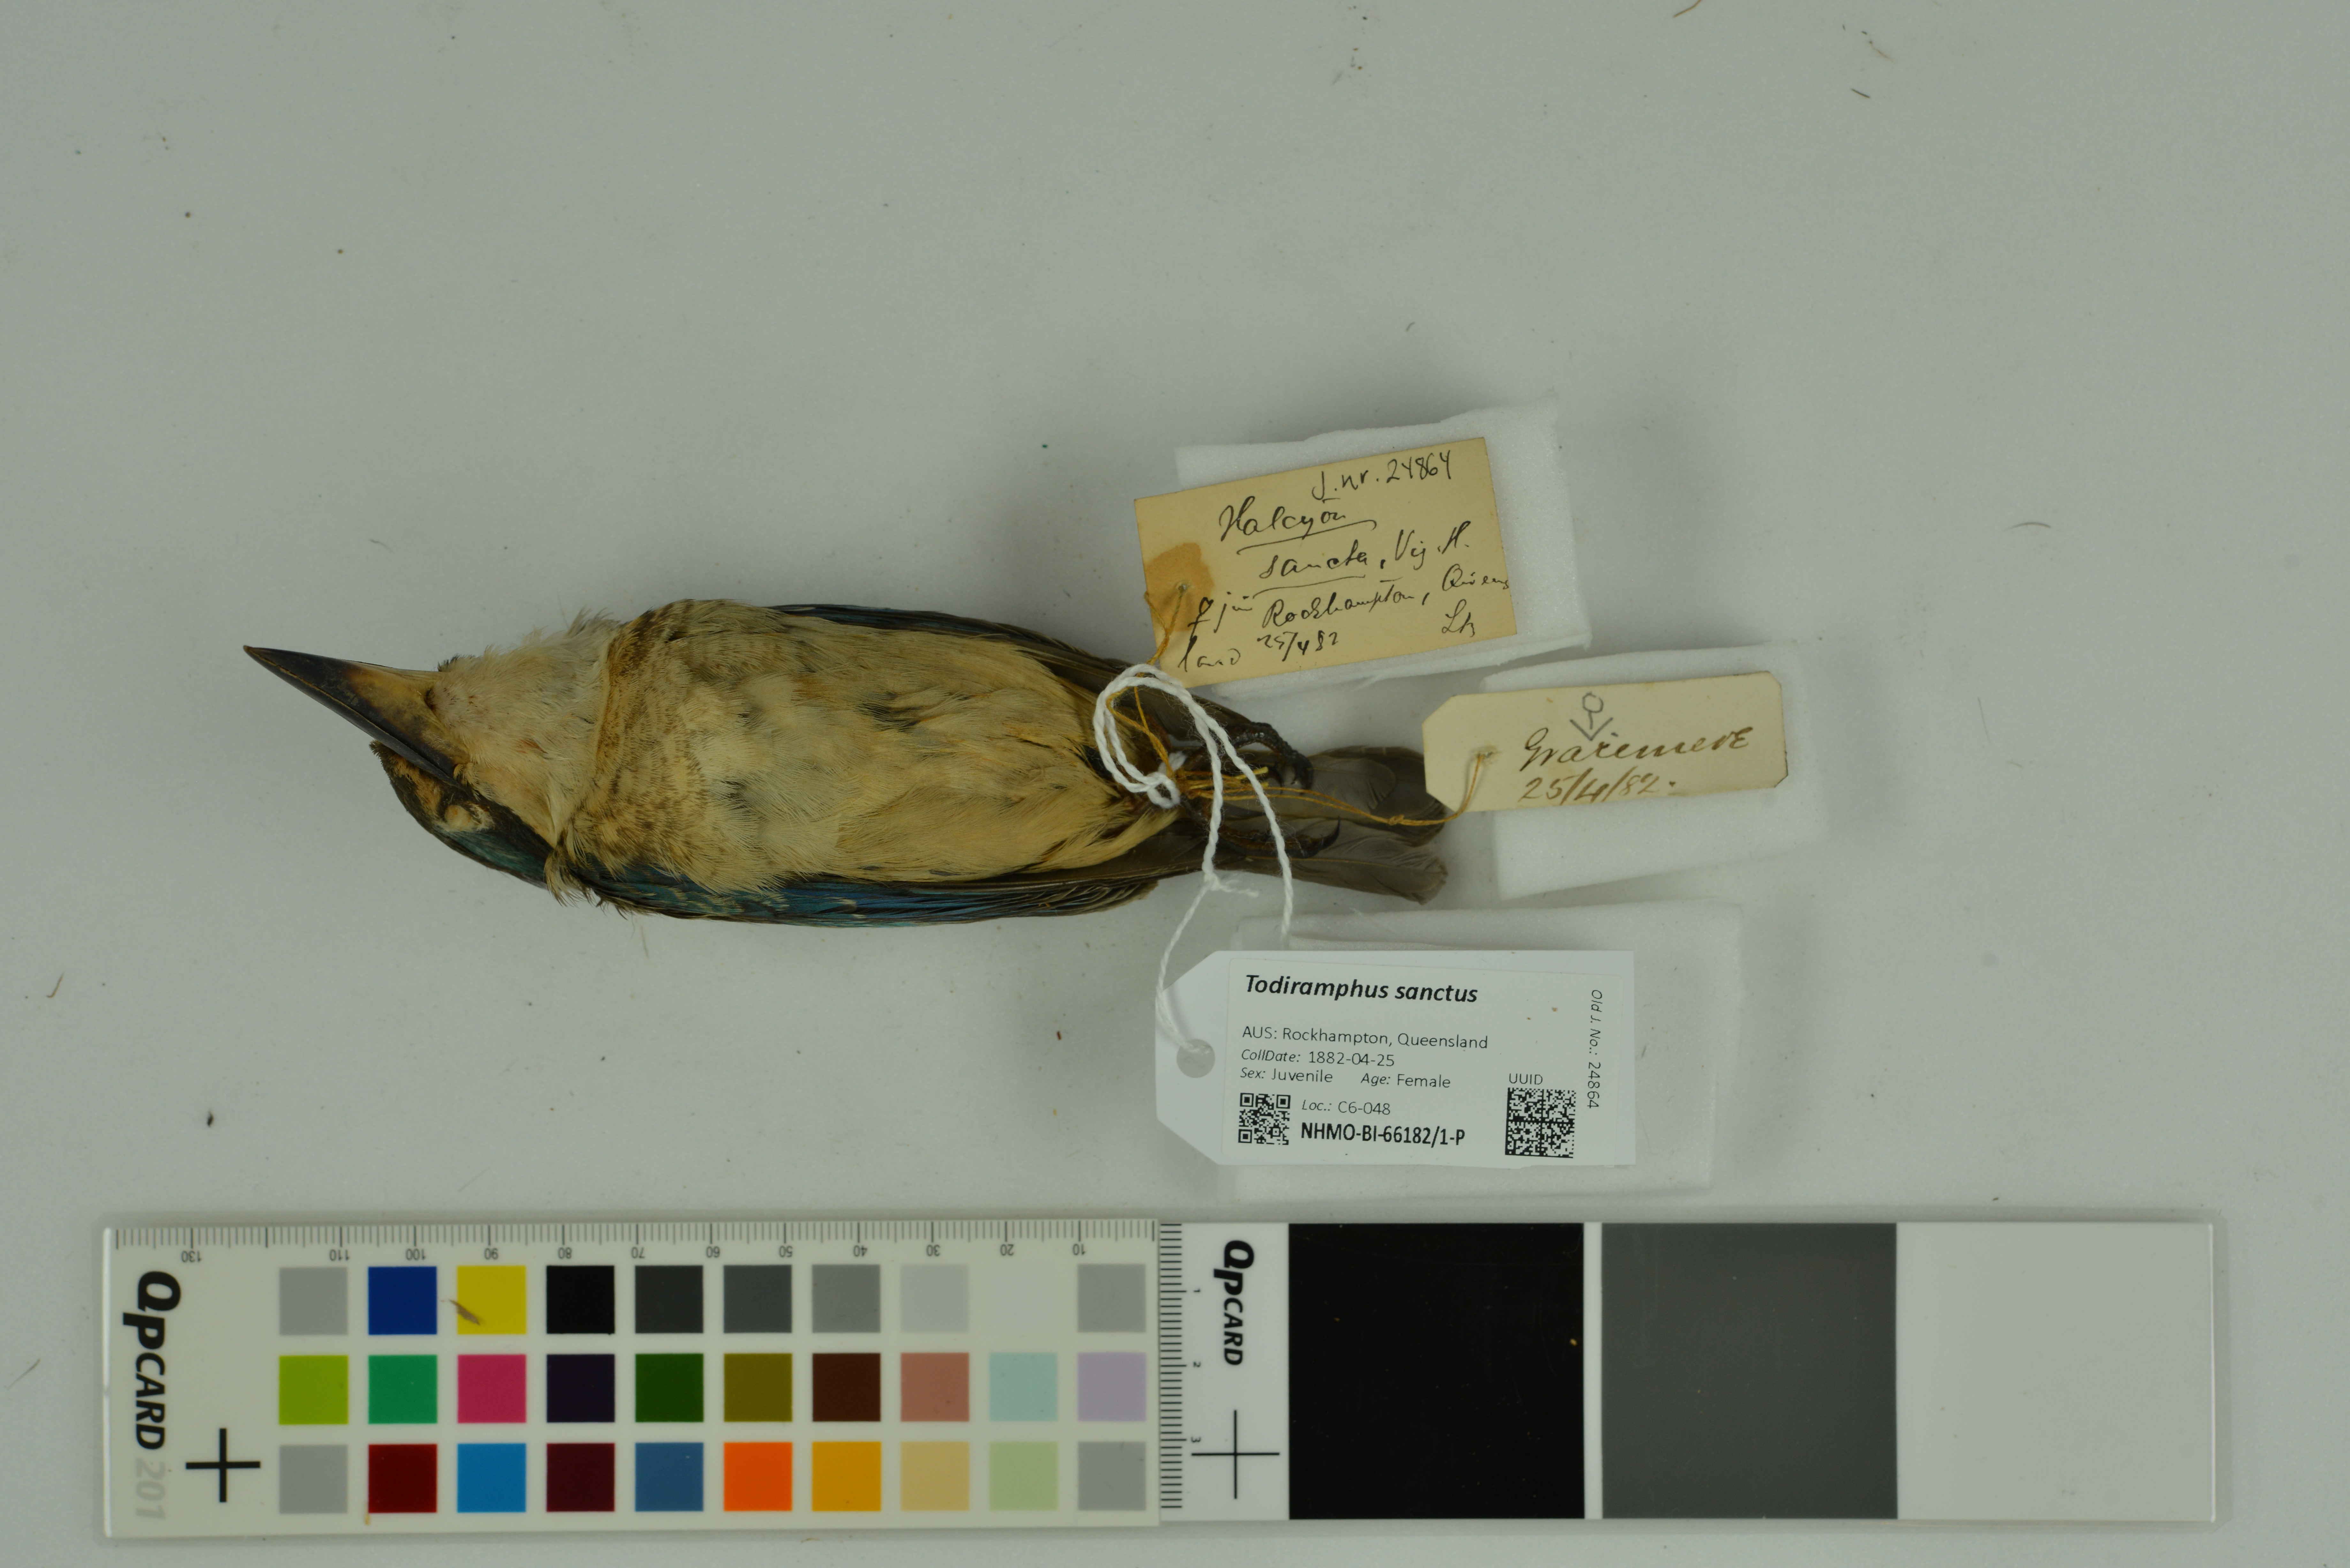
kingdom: Animalia
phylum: Chordata
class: Aves
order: Coraciiformes
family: Alcedinidae
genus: Todiramphus
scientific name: Todiramphus sanctus
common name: Sacred kingfisher
